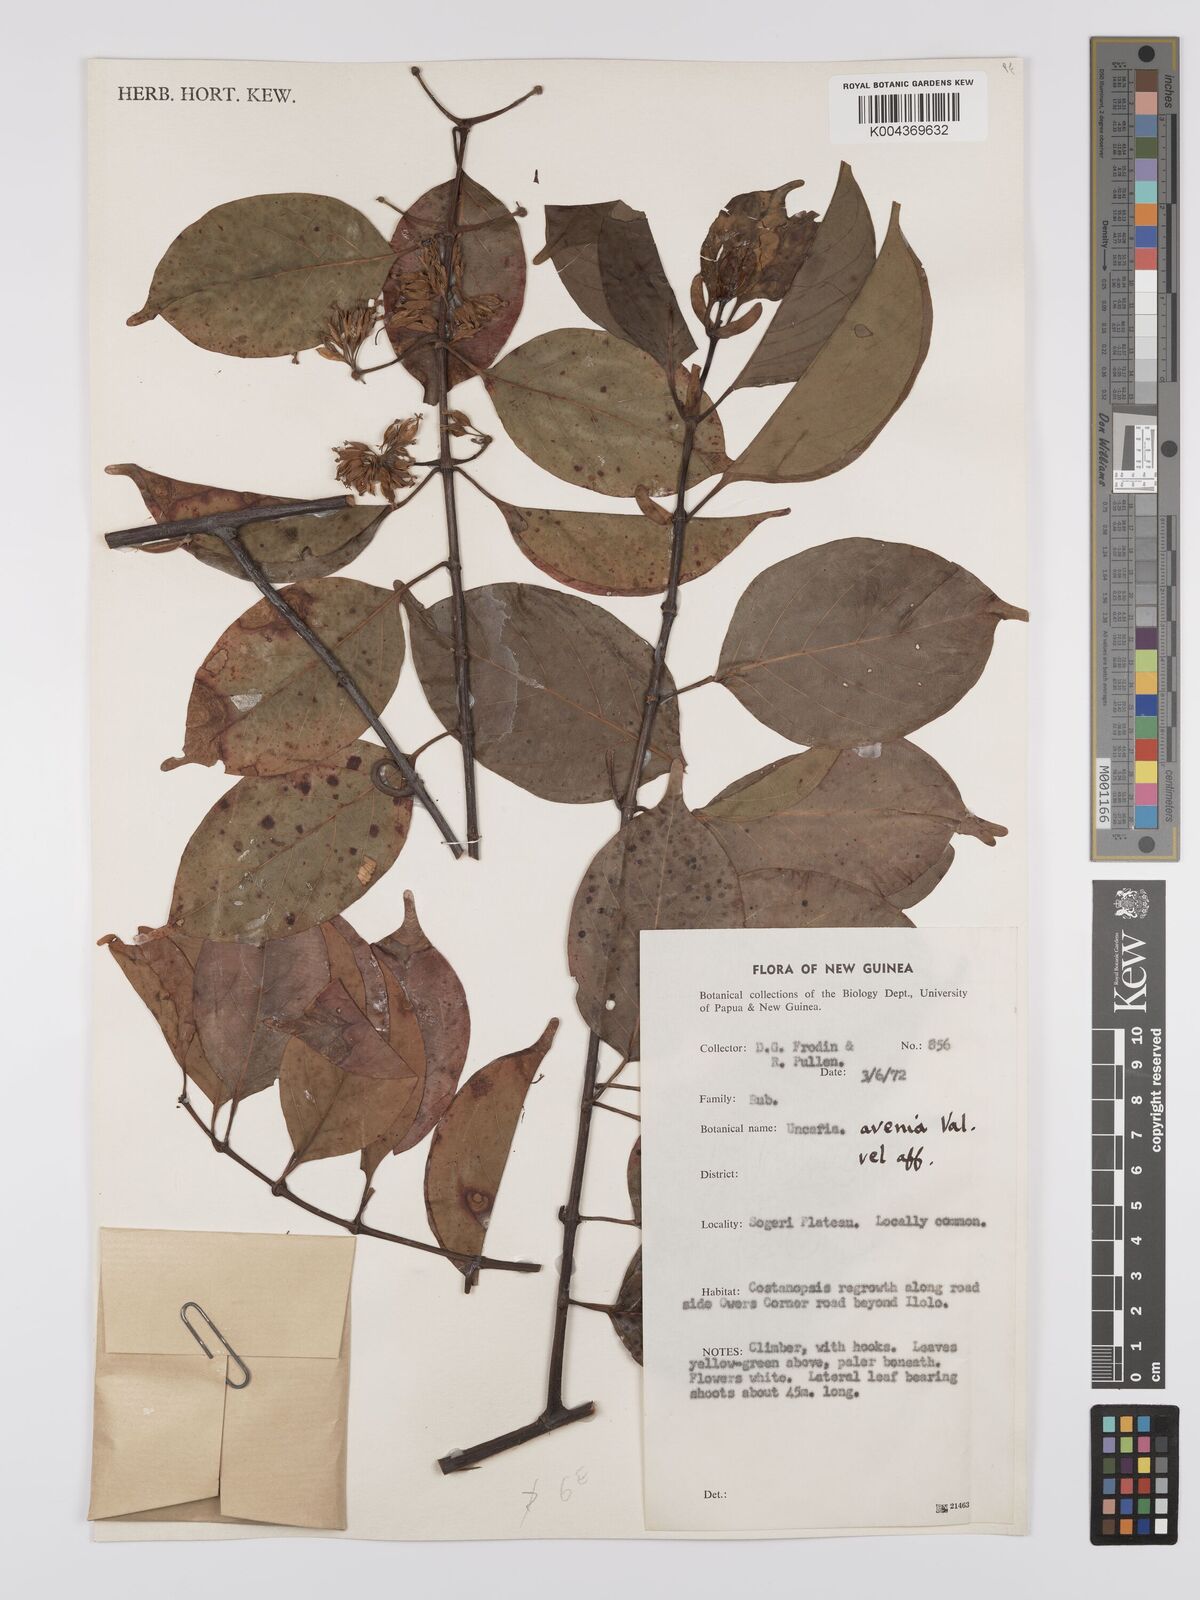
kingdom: Plantae
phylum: Tracheophyta
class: Magnoliopsida
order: Gentianales
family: Rubiaceae
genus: Uncaria
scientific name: Uncaria callophylla
